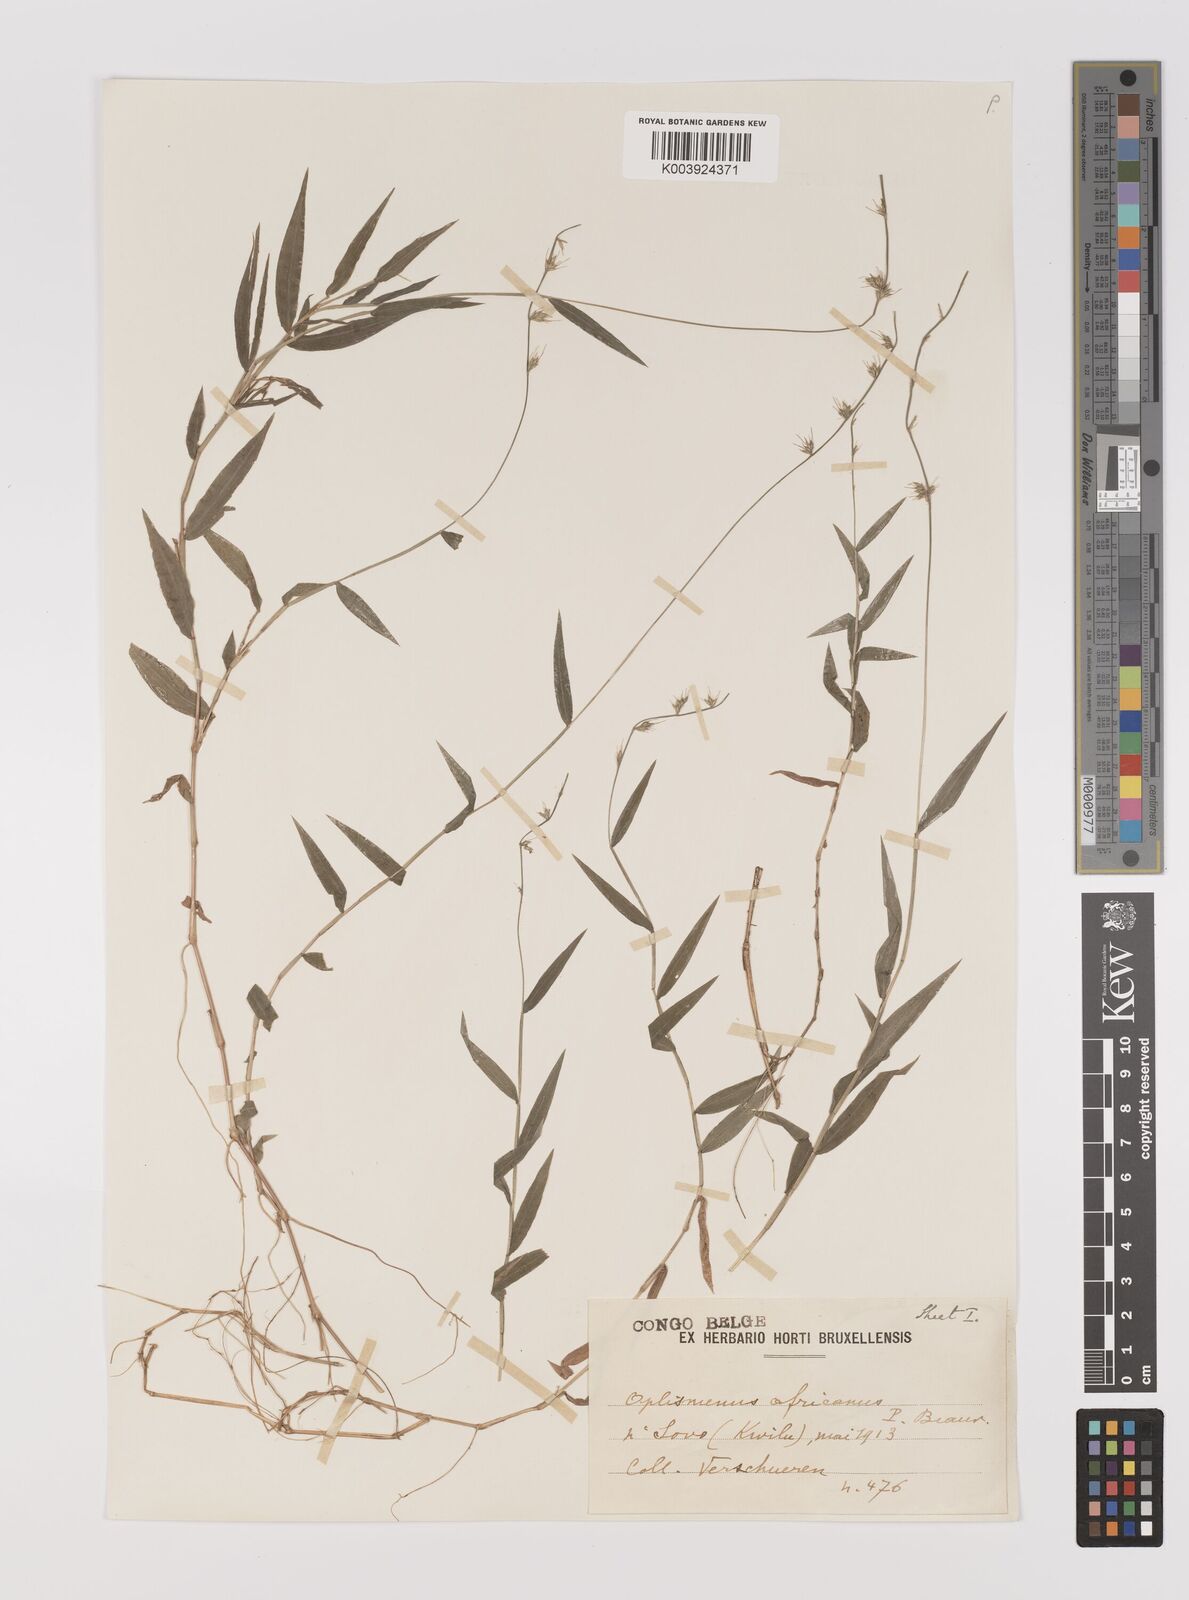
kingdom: Plantae
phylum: Tracheophyta
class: Liliopsida
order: Poales
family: Poaceae
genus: Oplismenus
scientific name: Oplismenus hirtellus
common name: Basketgrass
